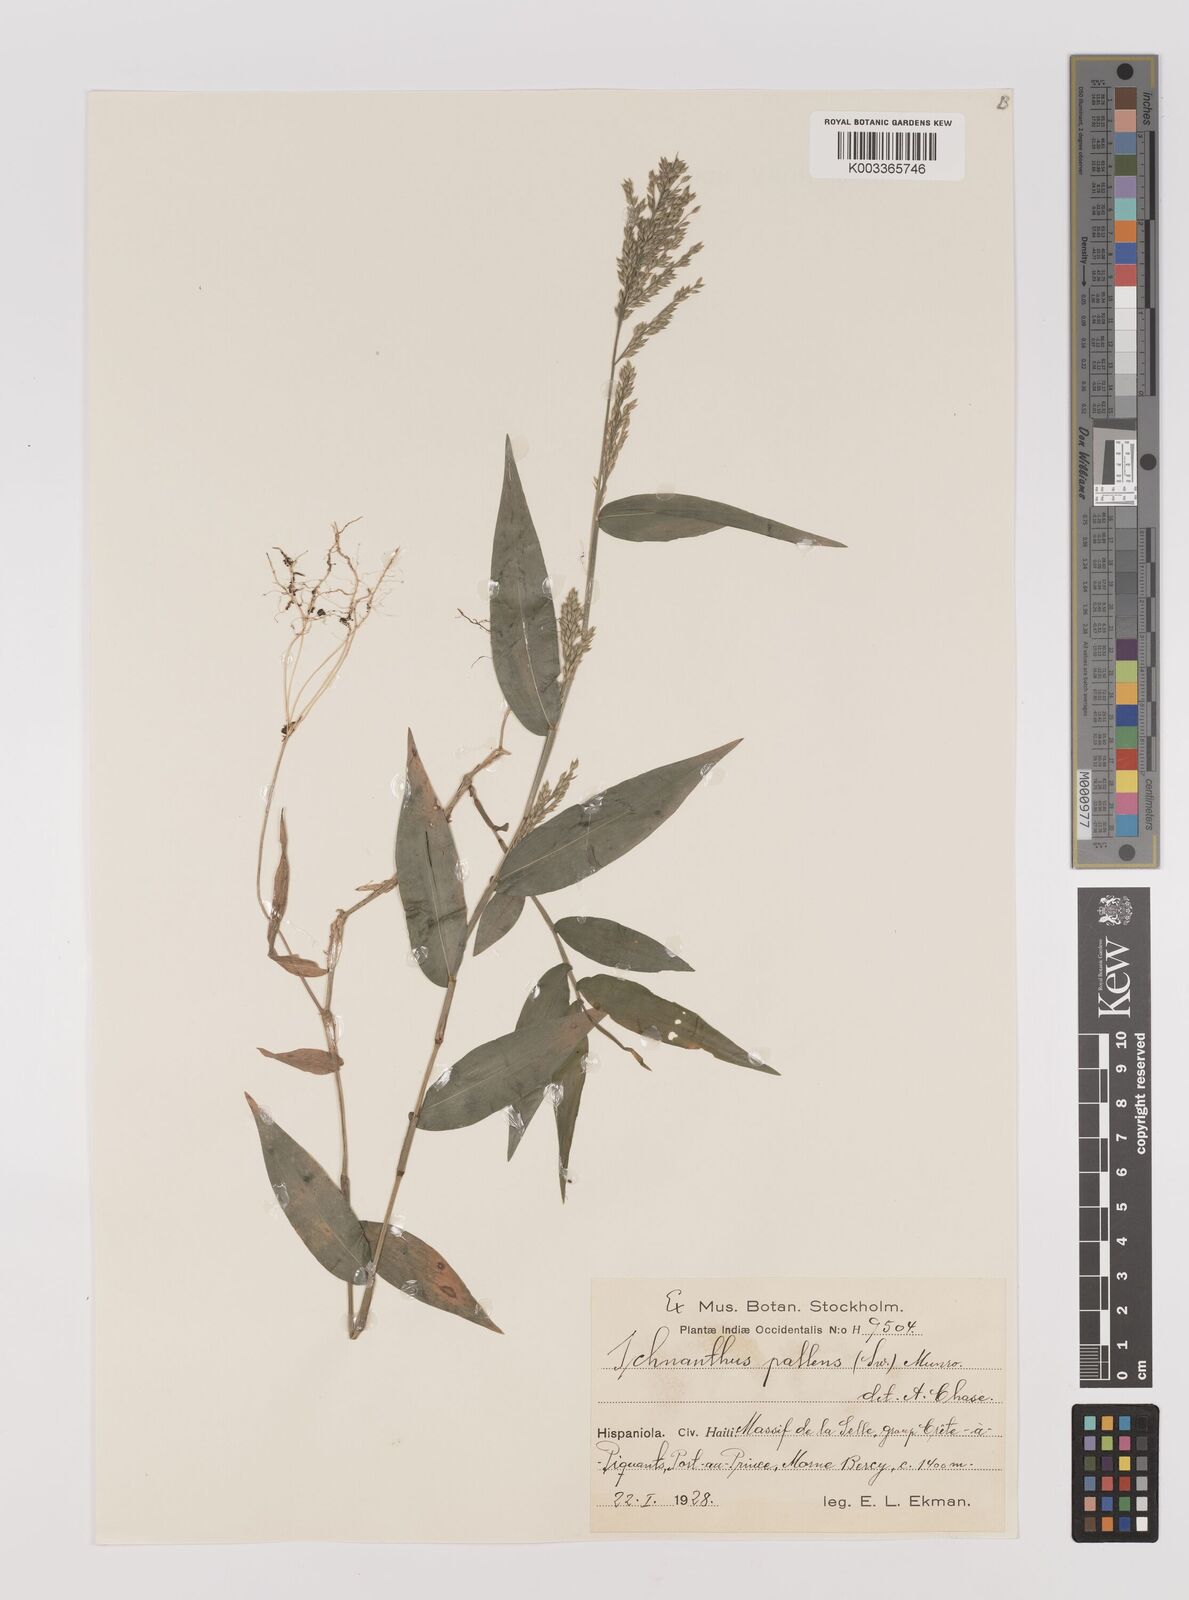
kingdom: Plantae
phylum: Tracheophyta
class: Liliopsida
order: Poales
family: Poaceae
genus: Ichnanthus
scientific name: Ichnanthus pallens
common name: Water grass
